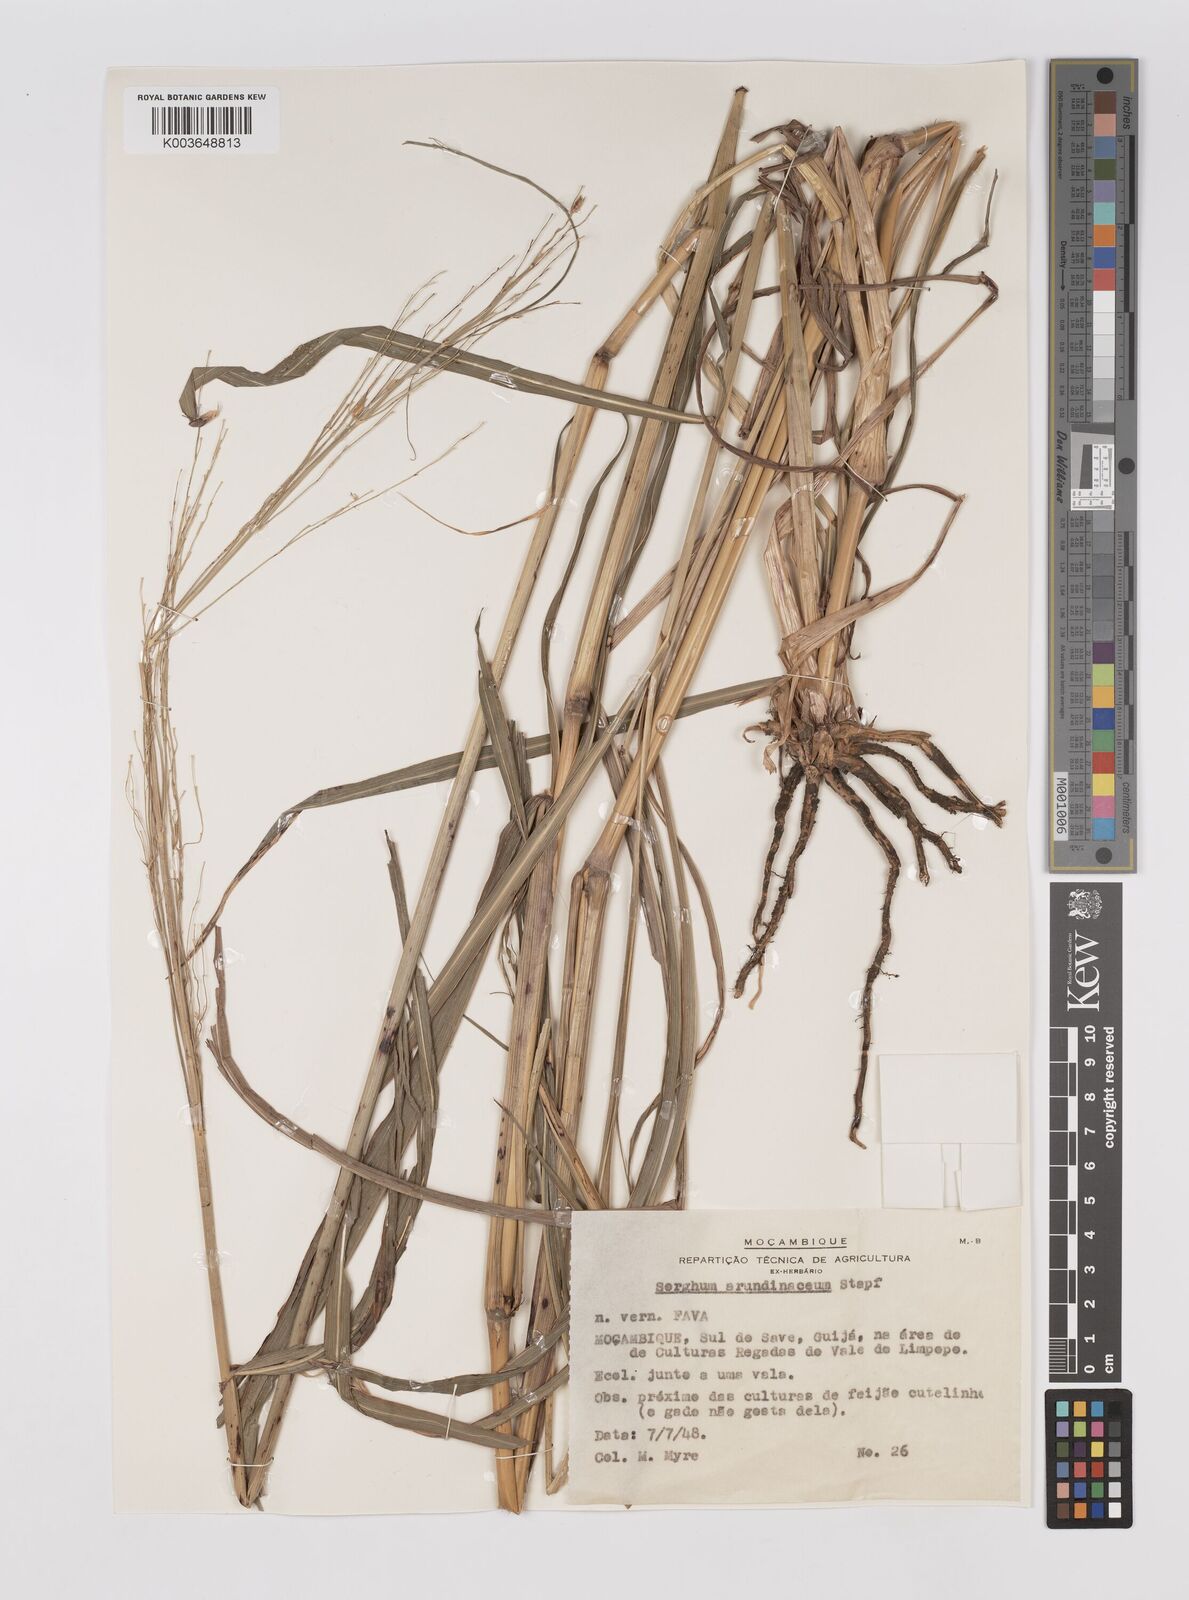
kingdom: Plantae
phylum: Tracheophyta
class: Liliopsida
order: Poales
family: Poaceae
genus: Sorghum
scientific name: Sorghum arundinaceum
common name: Sorghum
